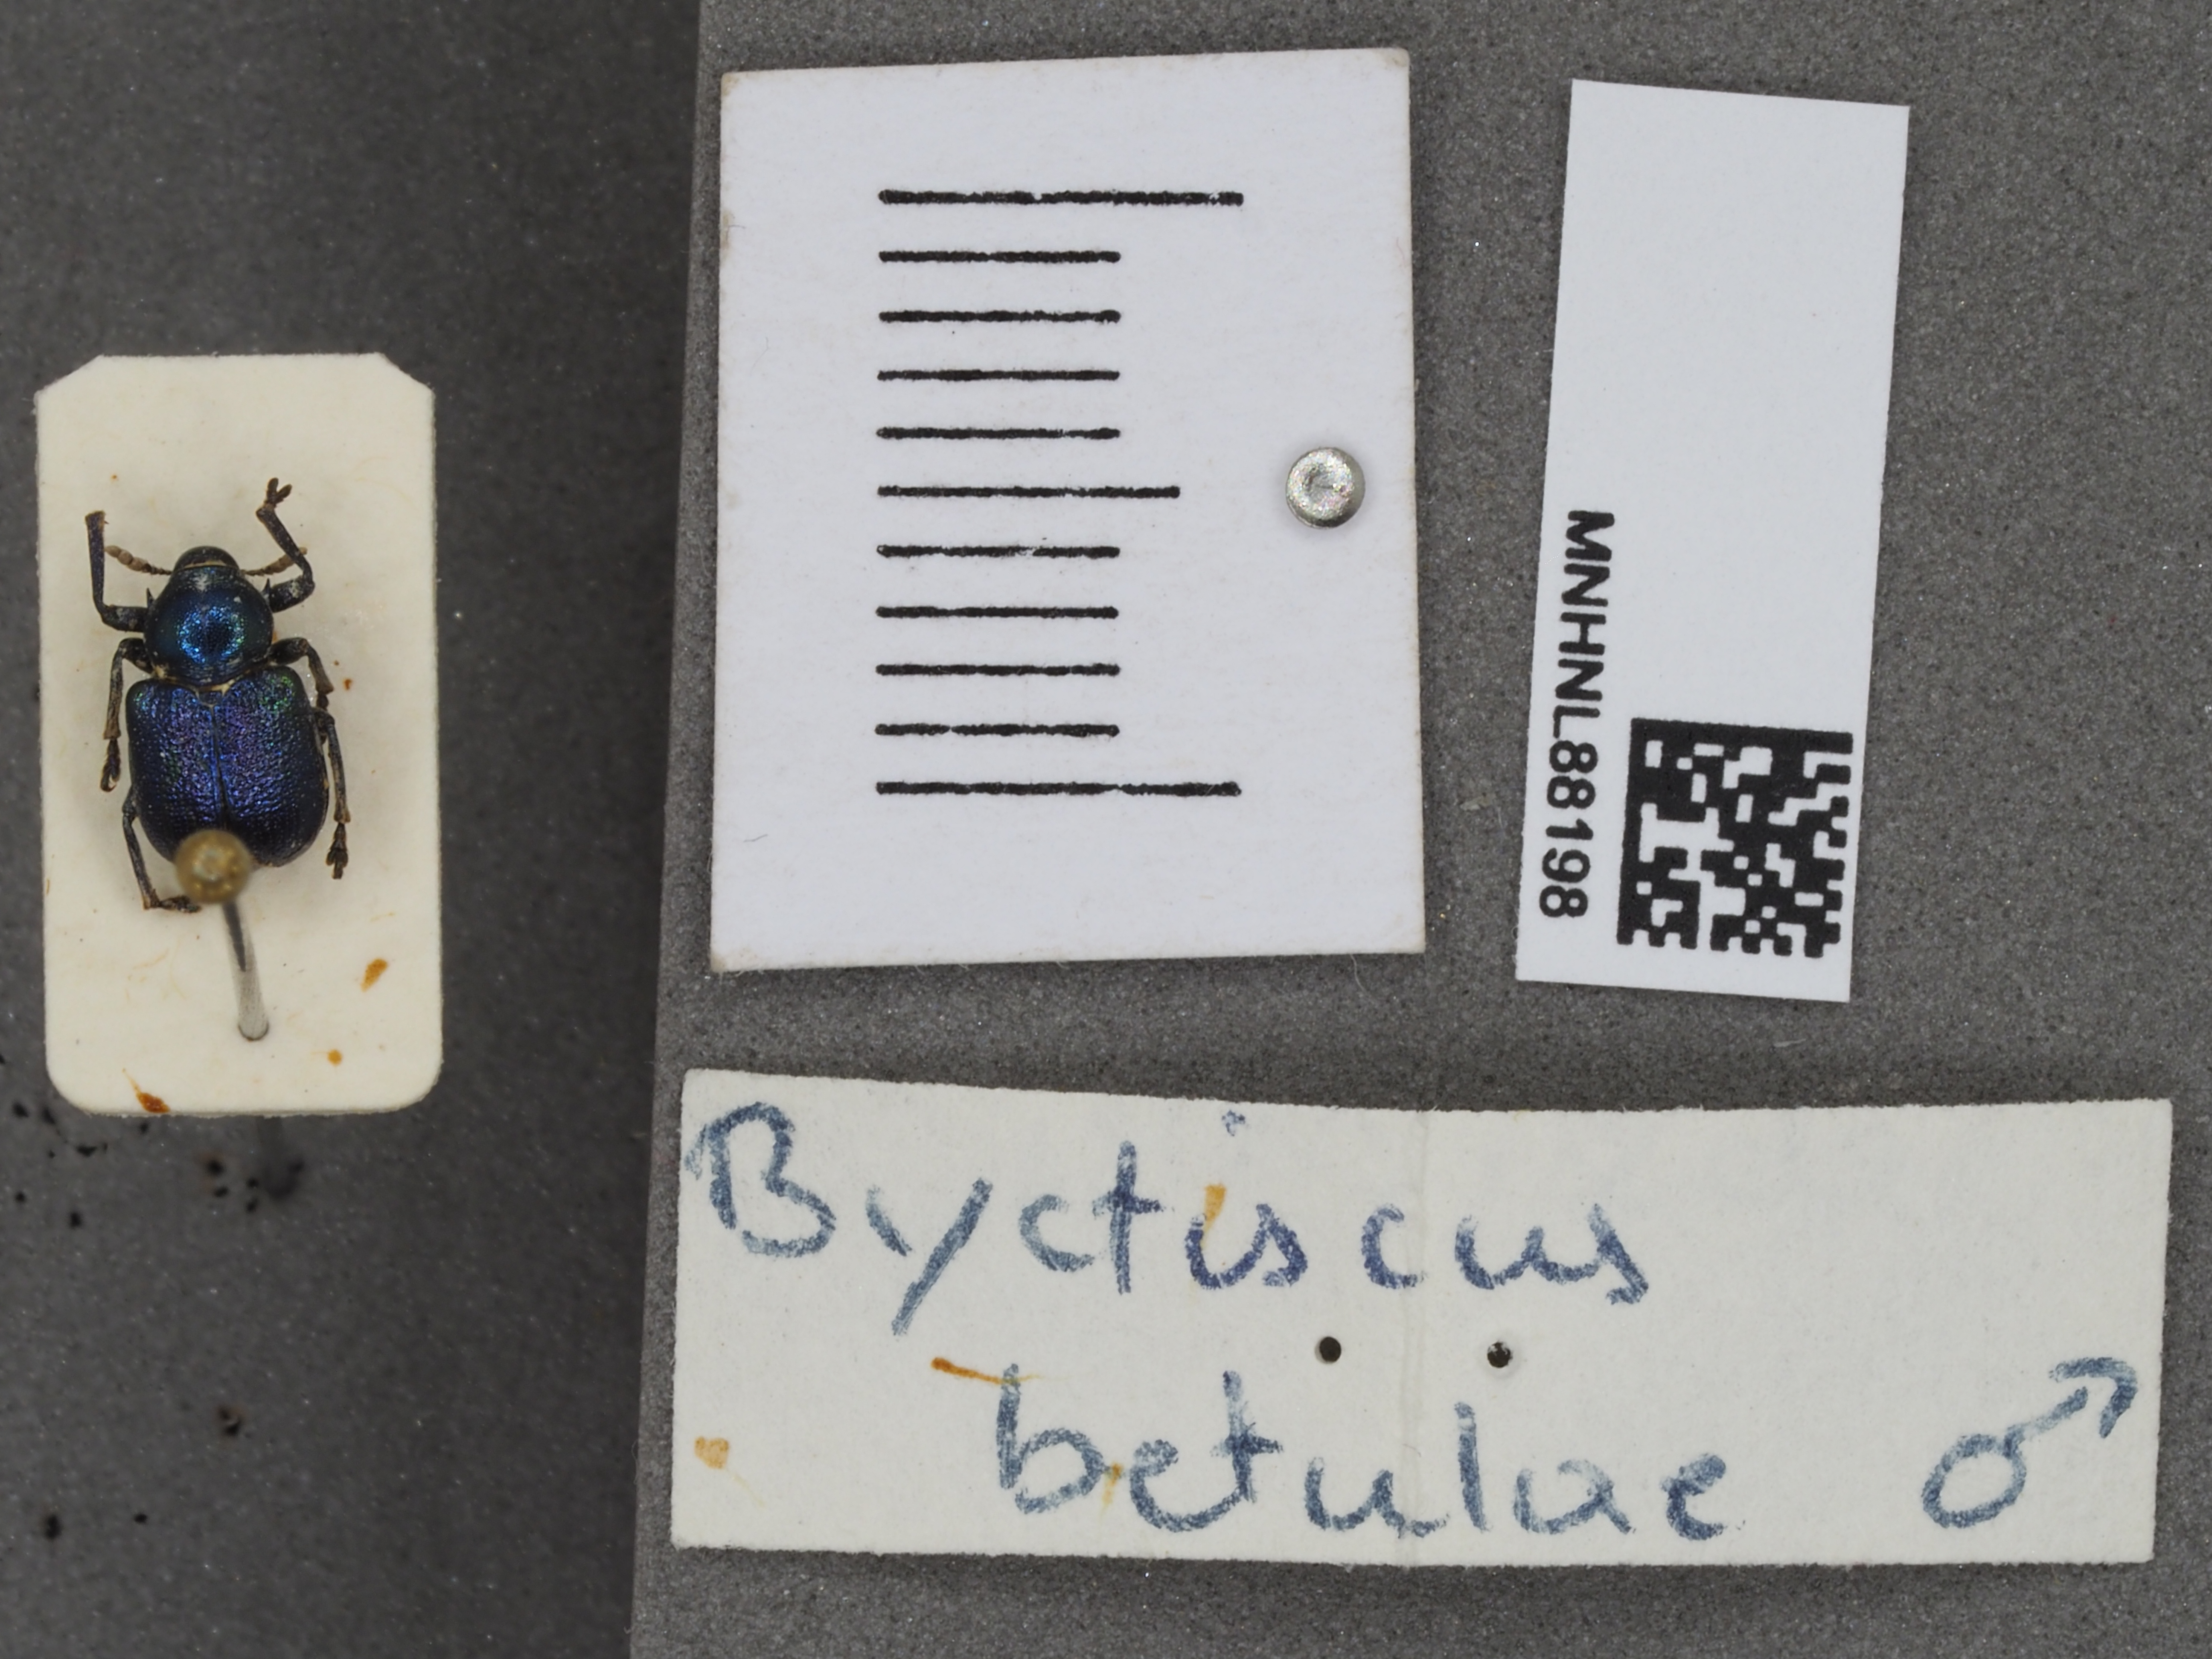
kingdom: Animalia
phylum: Arthropoda
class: Insecta
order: Coleoptera
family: Attelabidae
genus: Byctiscus
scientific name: Byctiscus betulae
